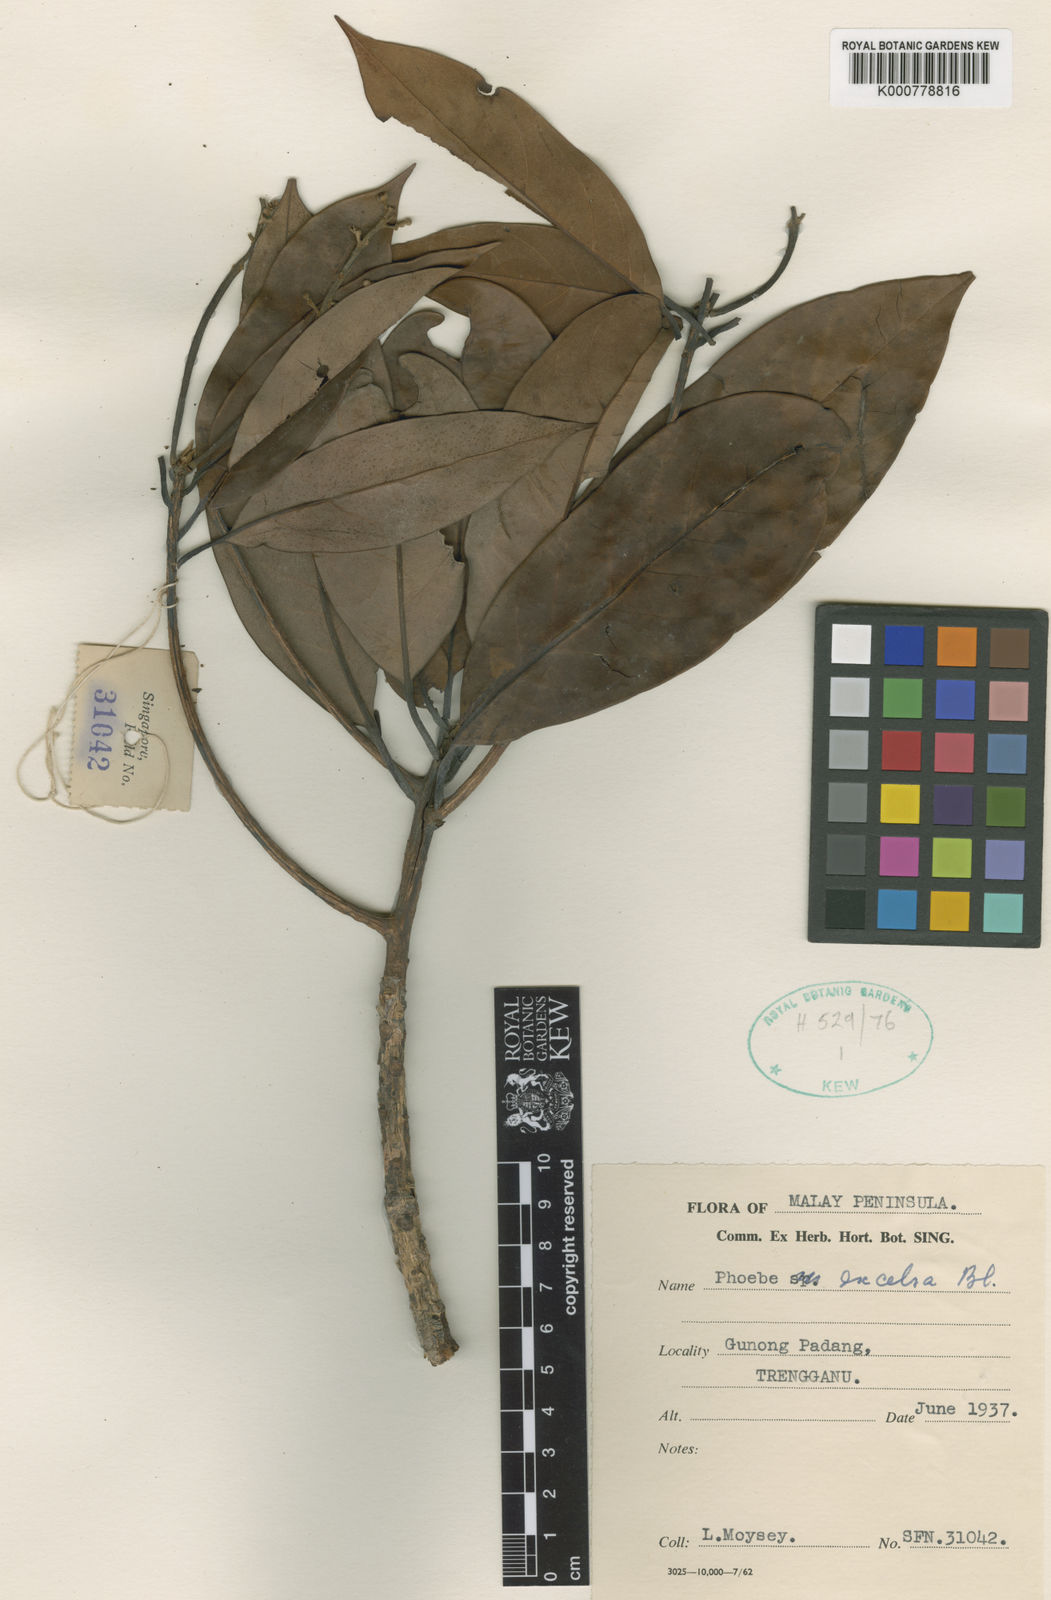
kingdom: Plantae
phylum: Tracheophyta
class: Magnoliopsida
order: Laurales
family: Lauraceae
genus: Machilus
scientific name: Machilus malayanus
